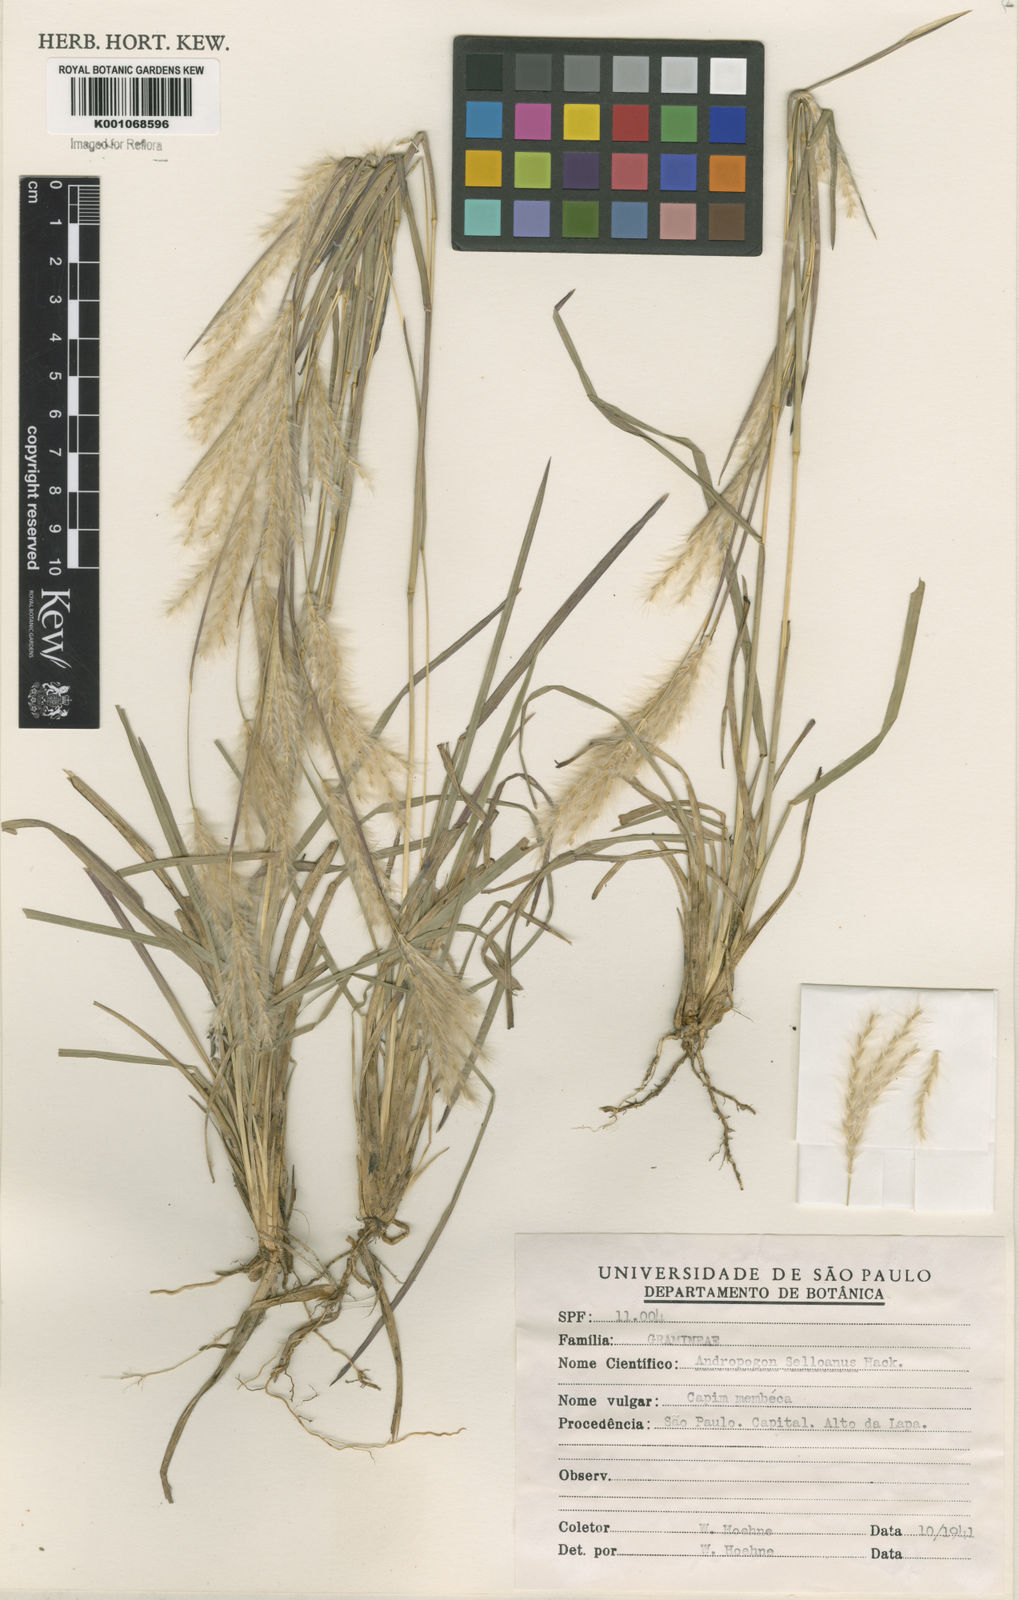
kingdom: Plantae
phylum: Tracheophyta
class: Liliopsida
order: Poales
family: Poaceae
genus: Andropogon
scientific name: Andropogon selloanus
